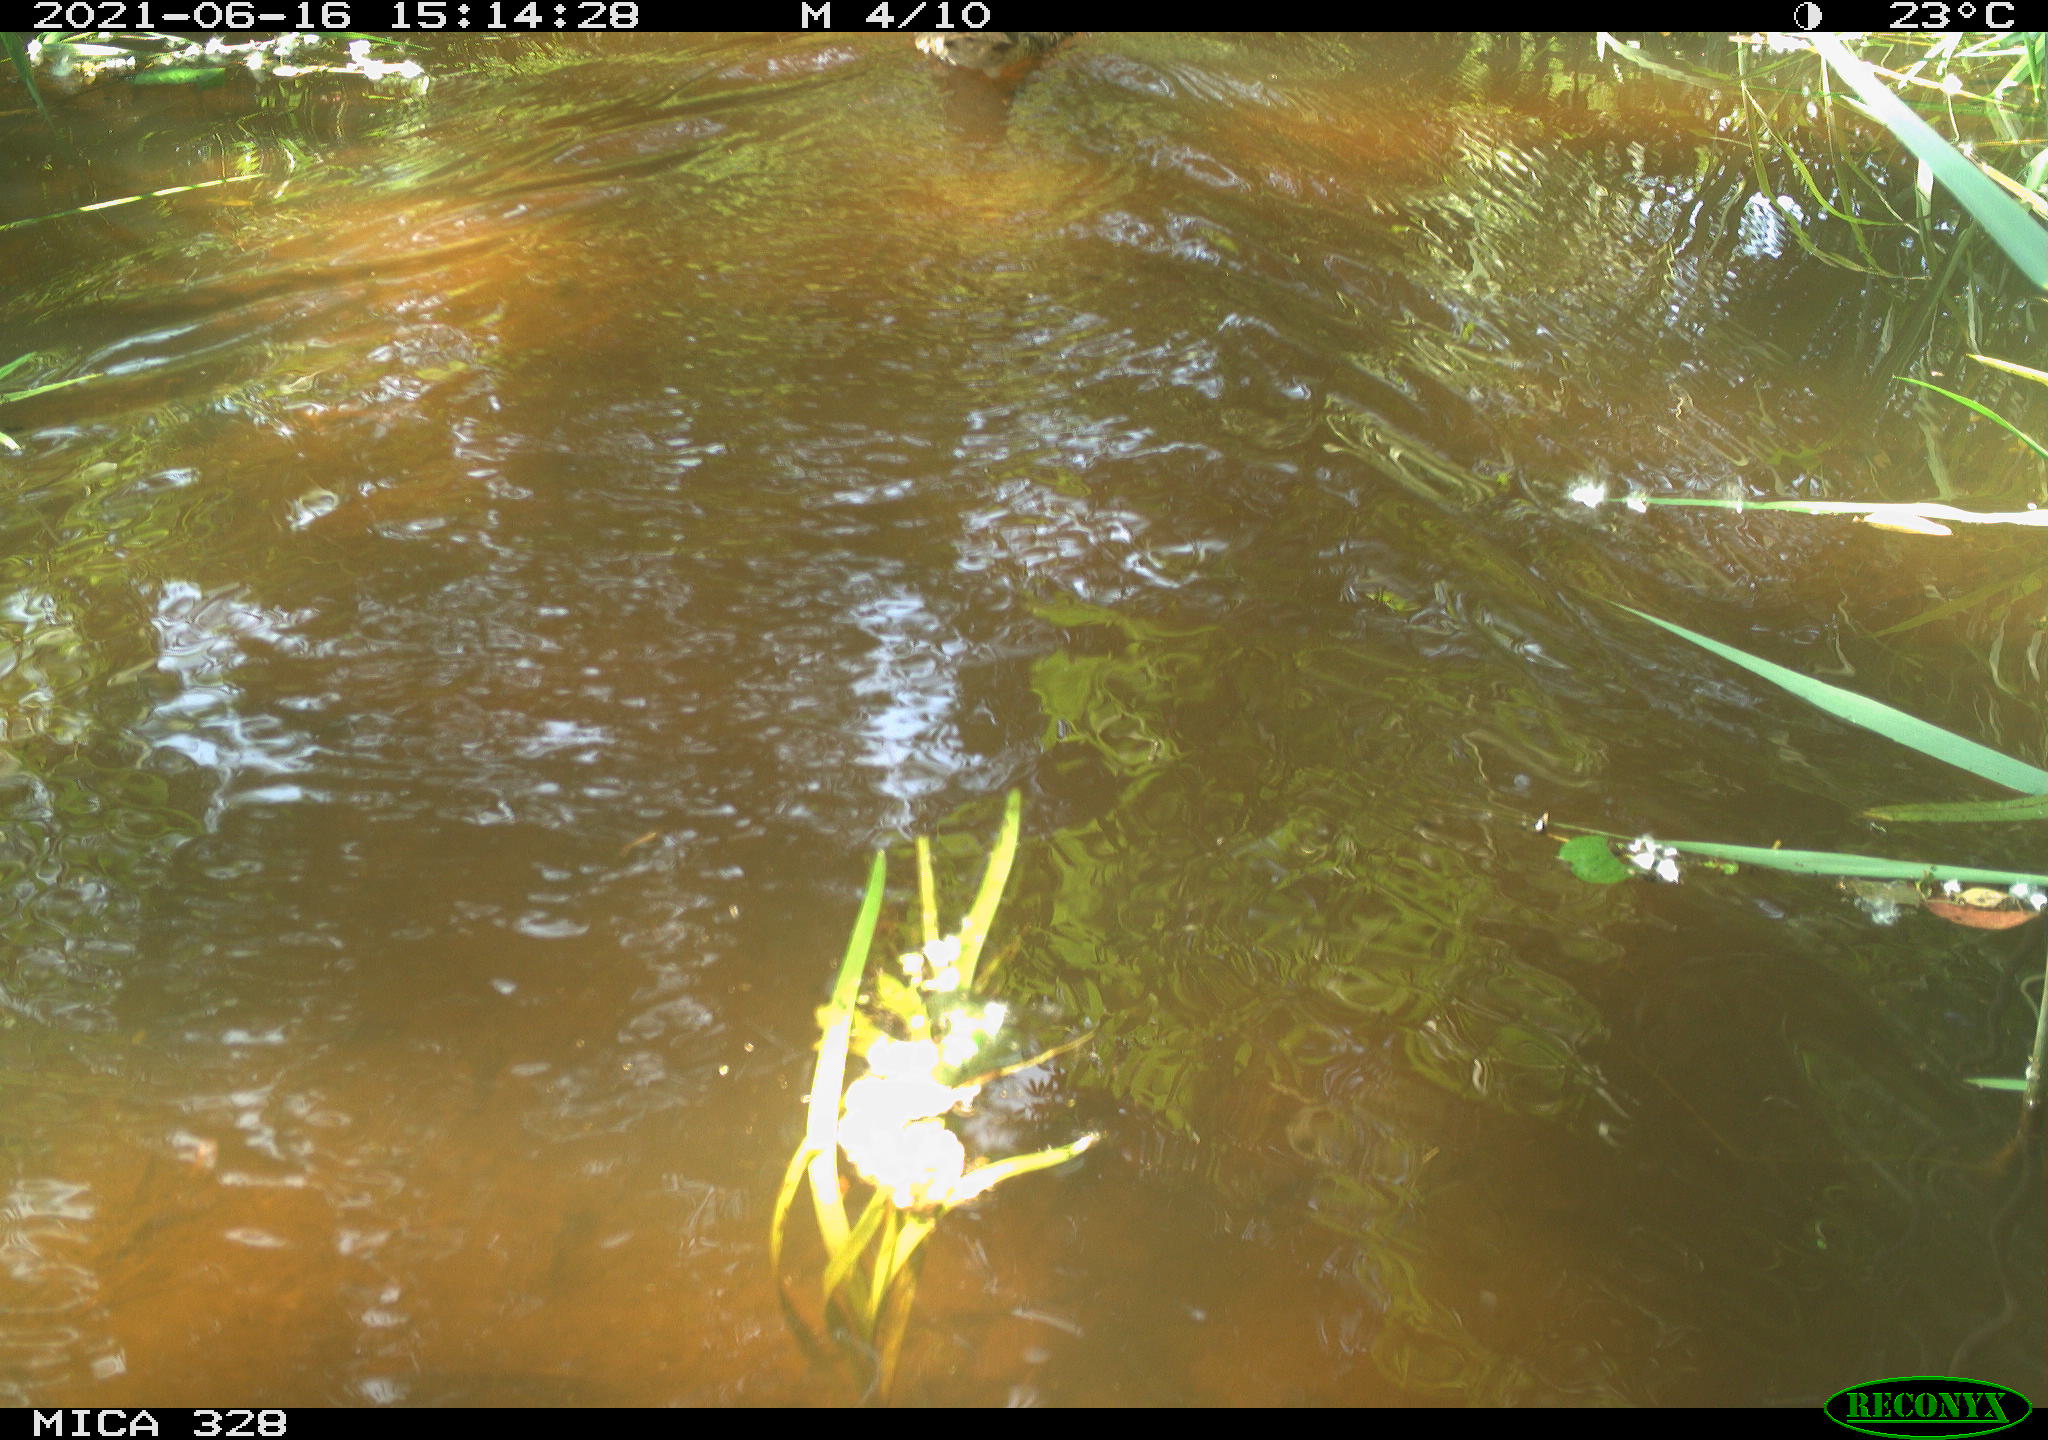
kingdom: Animalia
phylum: Chordata
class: Aves
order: Anseriformes
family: Anatidae
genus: Aix
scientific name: Aix galericulata
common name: Mandarin duck
